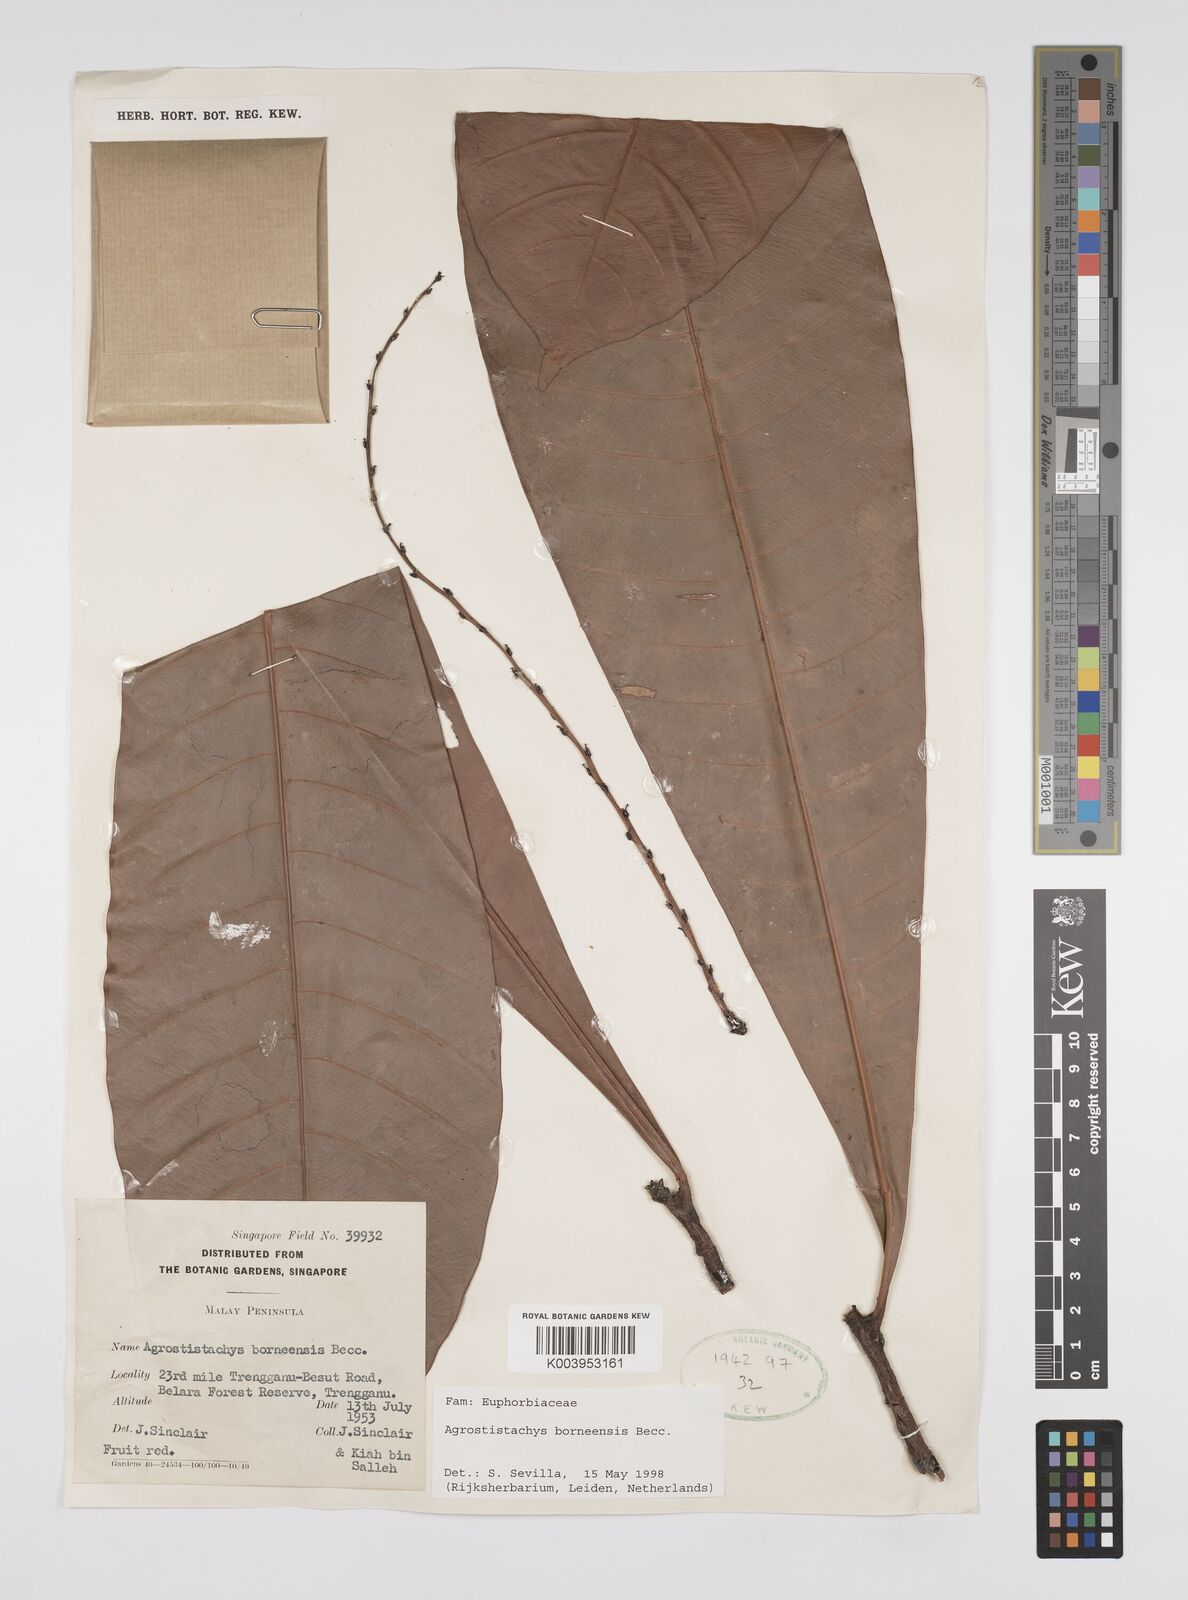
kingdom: Plantae
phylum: Tracheophyta
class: Magnoliopsida
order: Malpighiales
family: Euphorbiaceae
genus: Agrostistachys
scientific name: Agrostistachys borneensis
